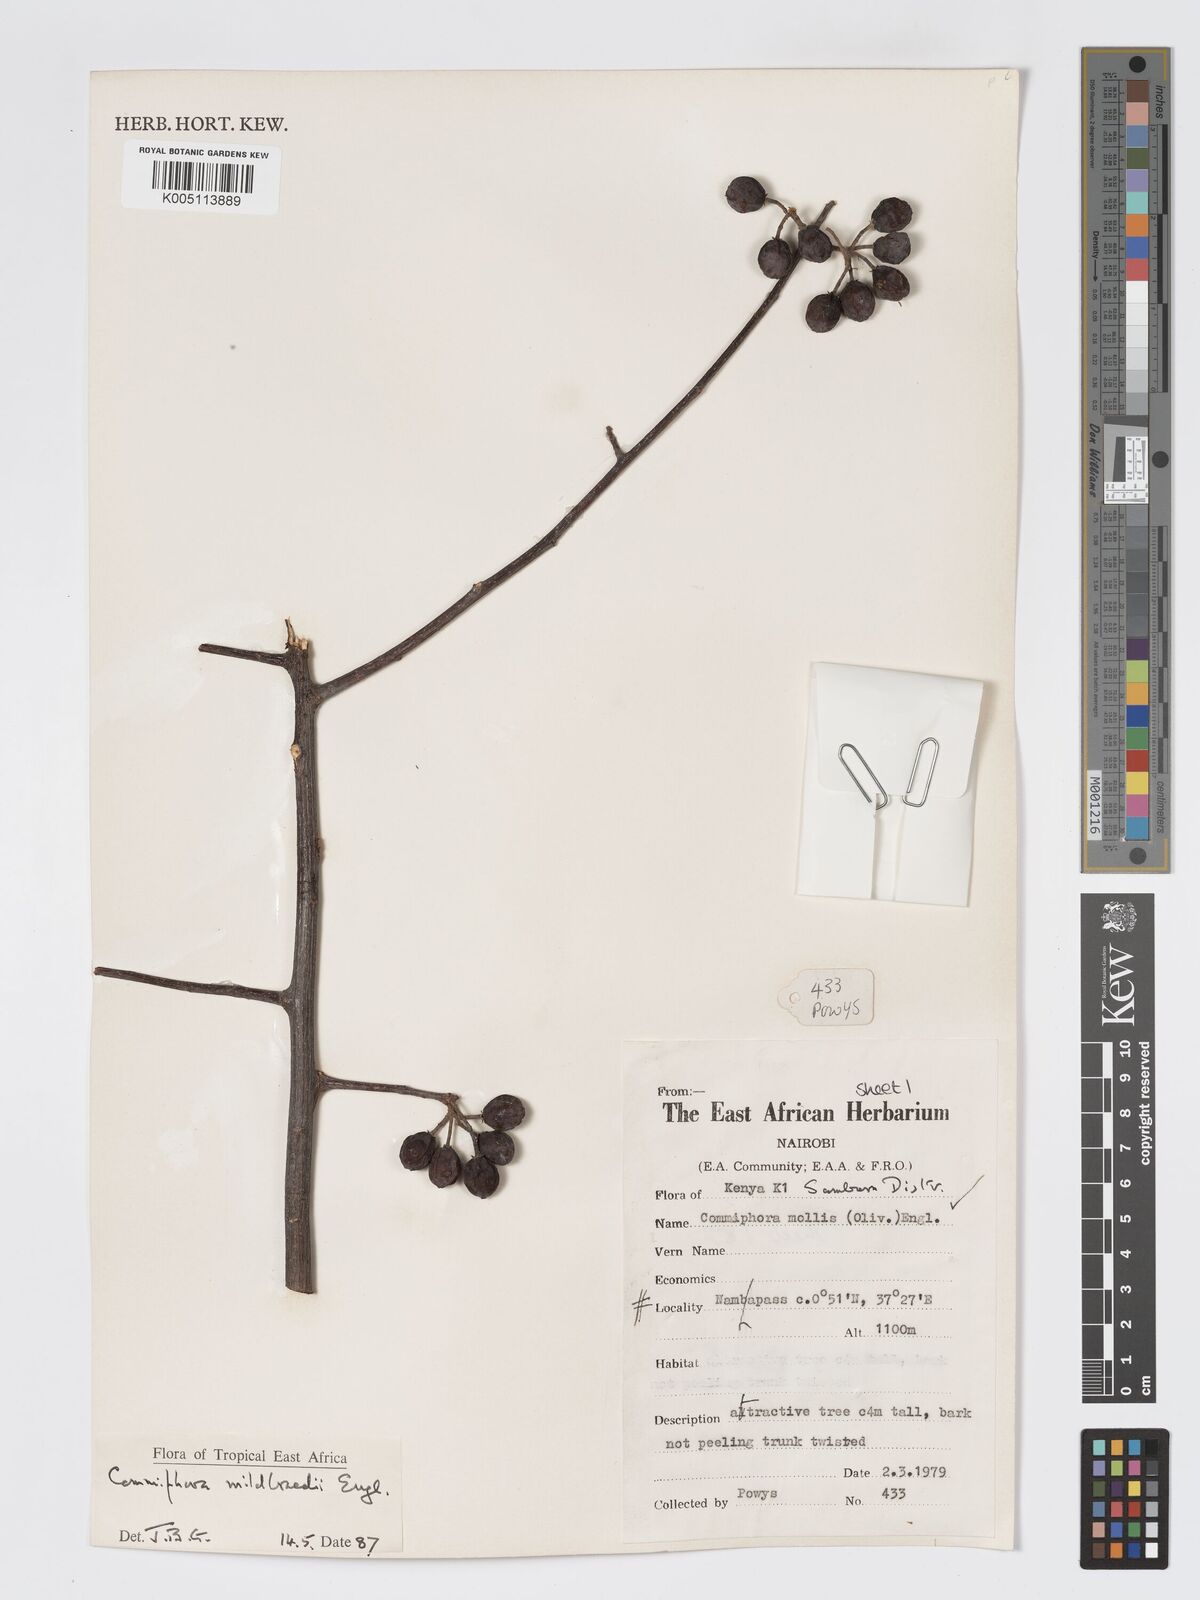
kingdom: Plantae
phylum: Tracheophyta
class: Magnoliopsida
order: Sapindales
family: Burseraceae
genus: Commiphora
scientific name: Commiphora mildbraedii
